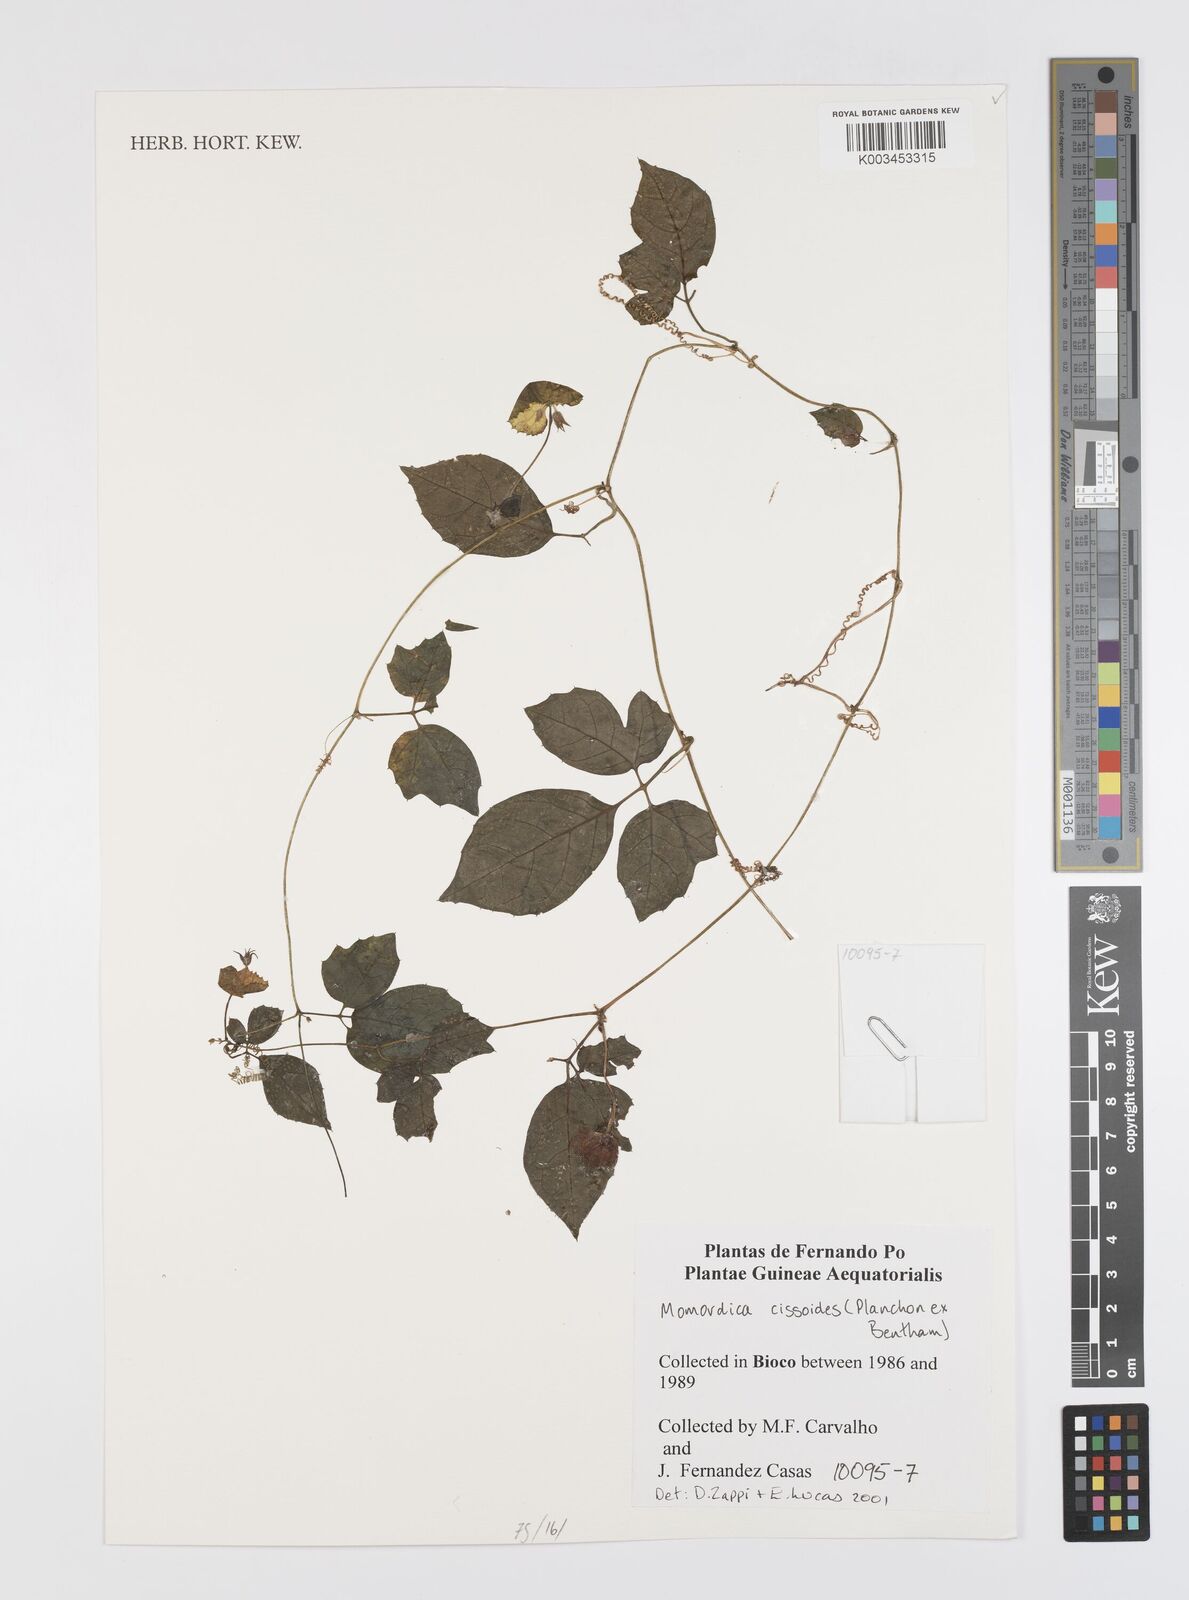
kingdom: Plantae
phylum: Tracheophyta
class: Magnoliopsida
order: Cucurbitales
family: Cucurbitaceae
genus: Momordica
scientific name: Momordica cissoides
